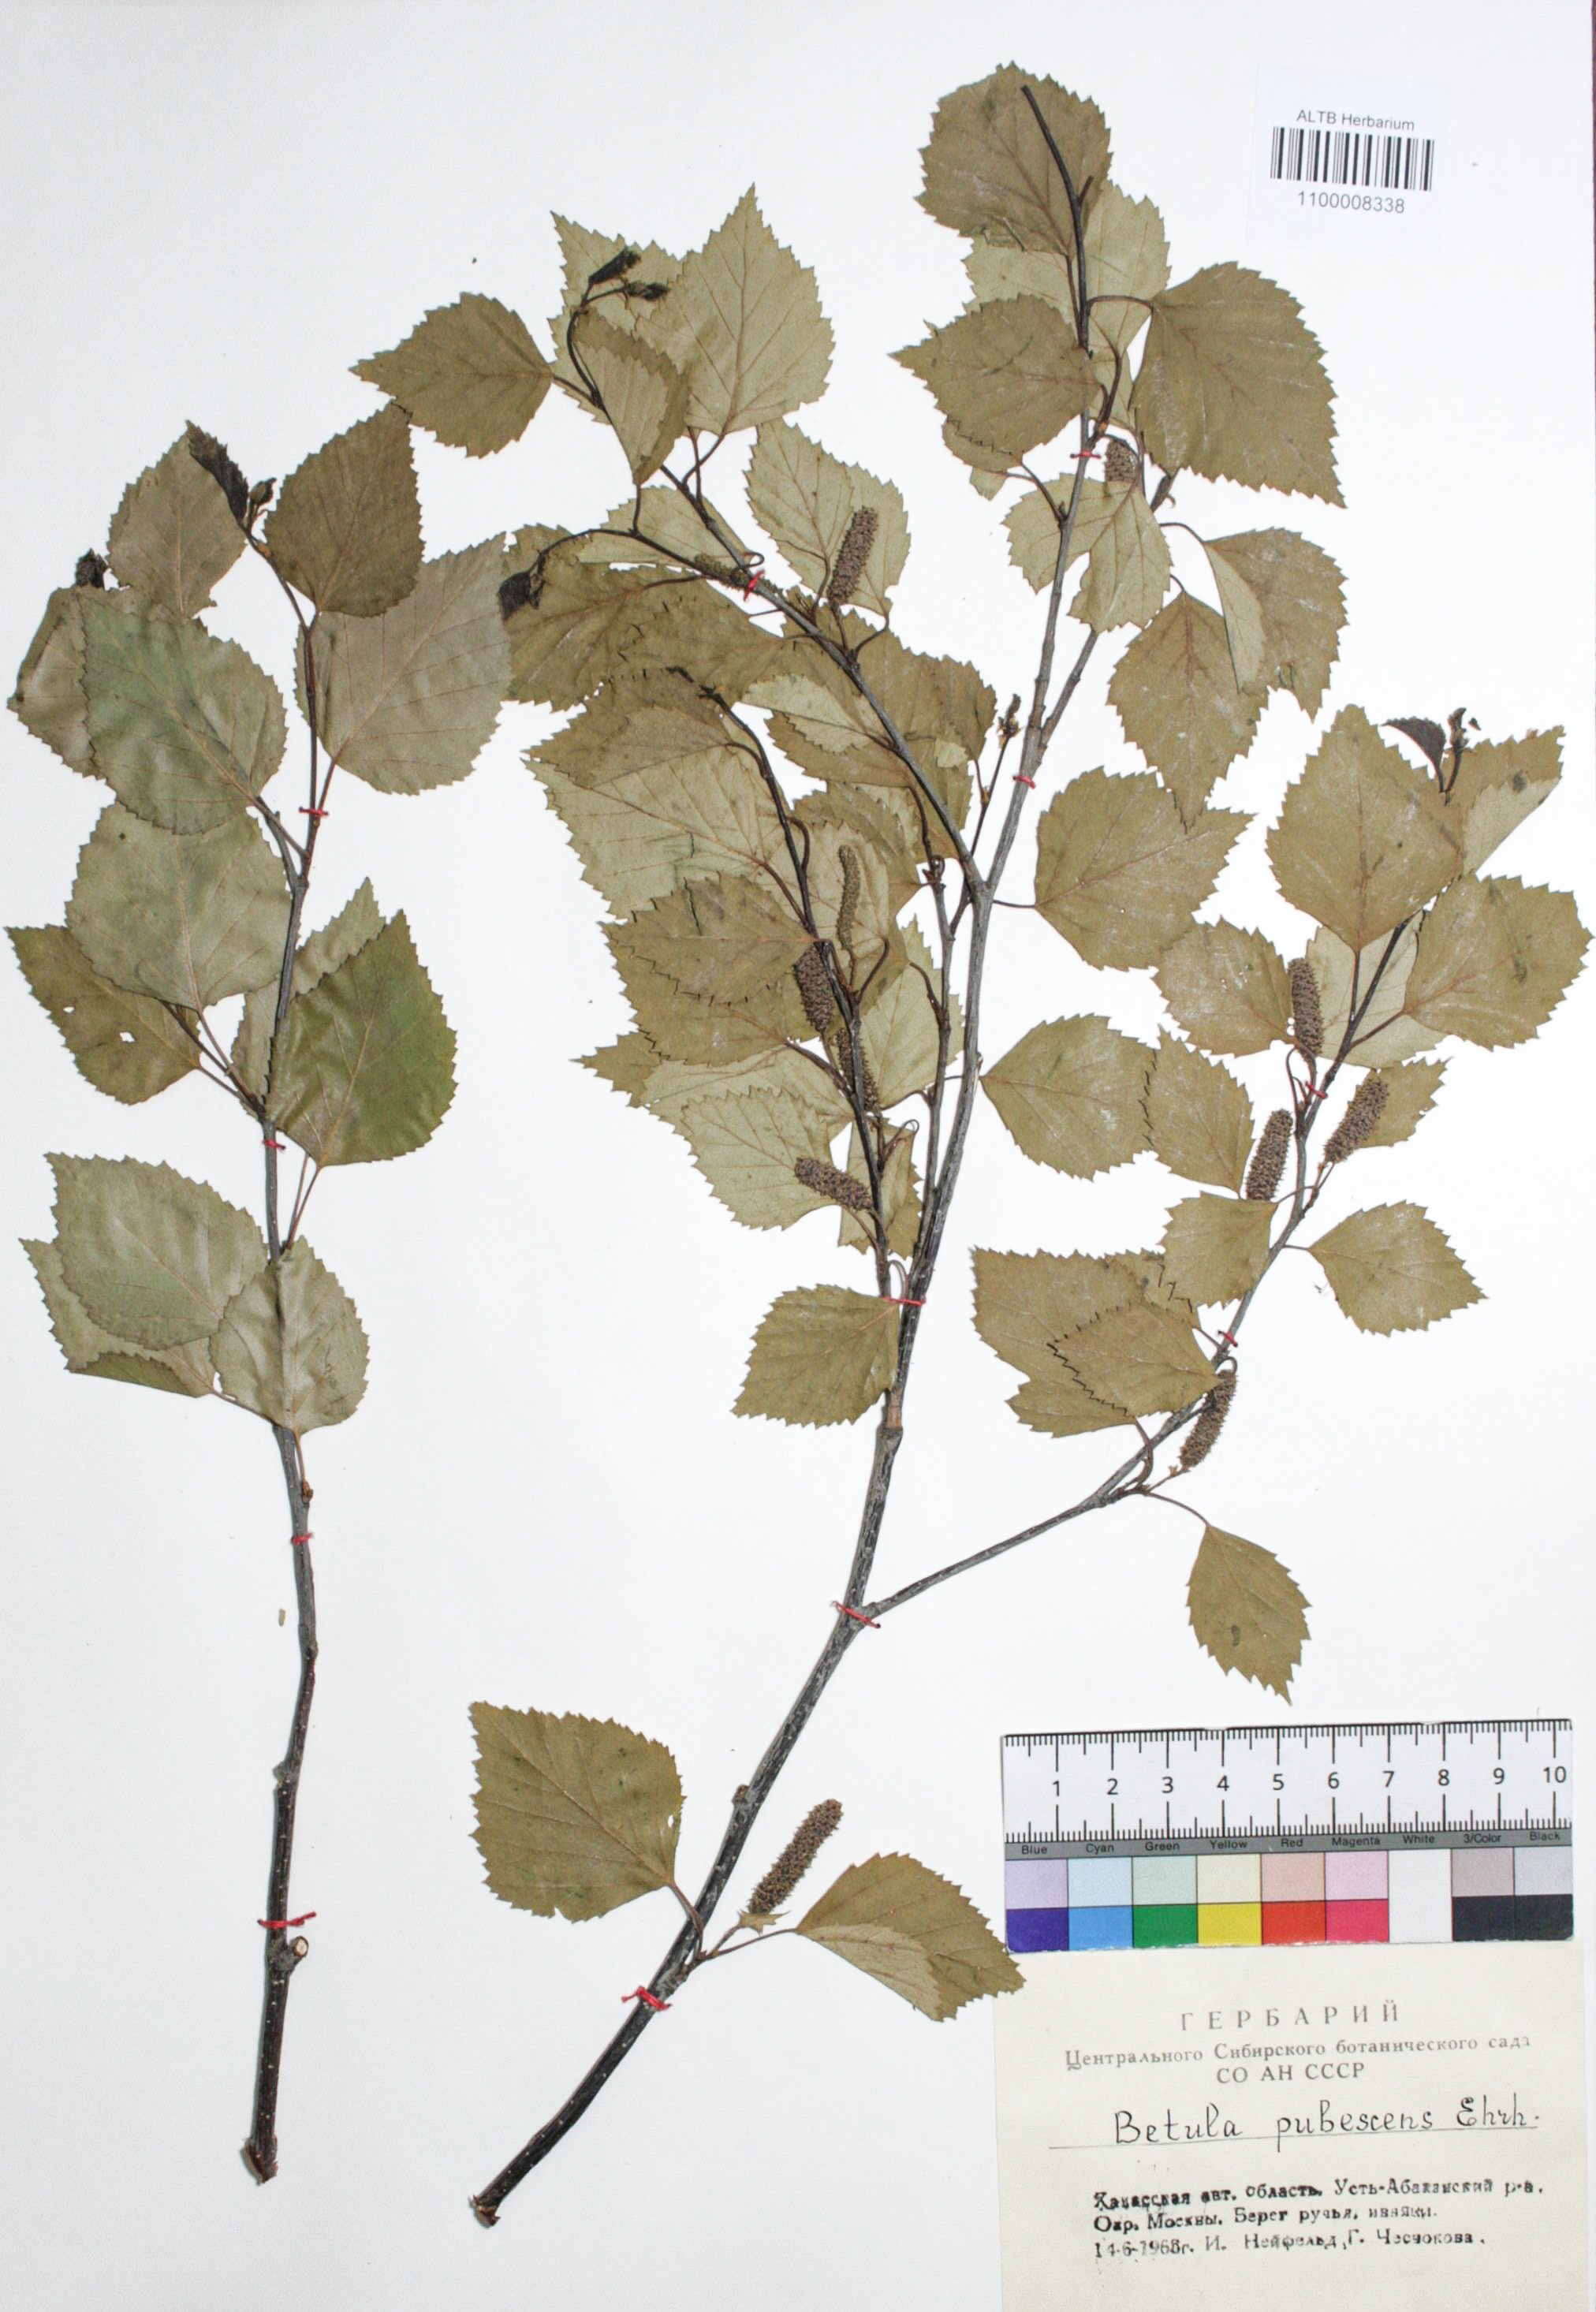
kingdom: Plantae
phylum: Tracheophyta
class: Magnoliopsida
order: Fagales
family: Betulaceae
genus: Betula
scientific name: Betula pubescens
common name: Downy birch
